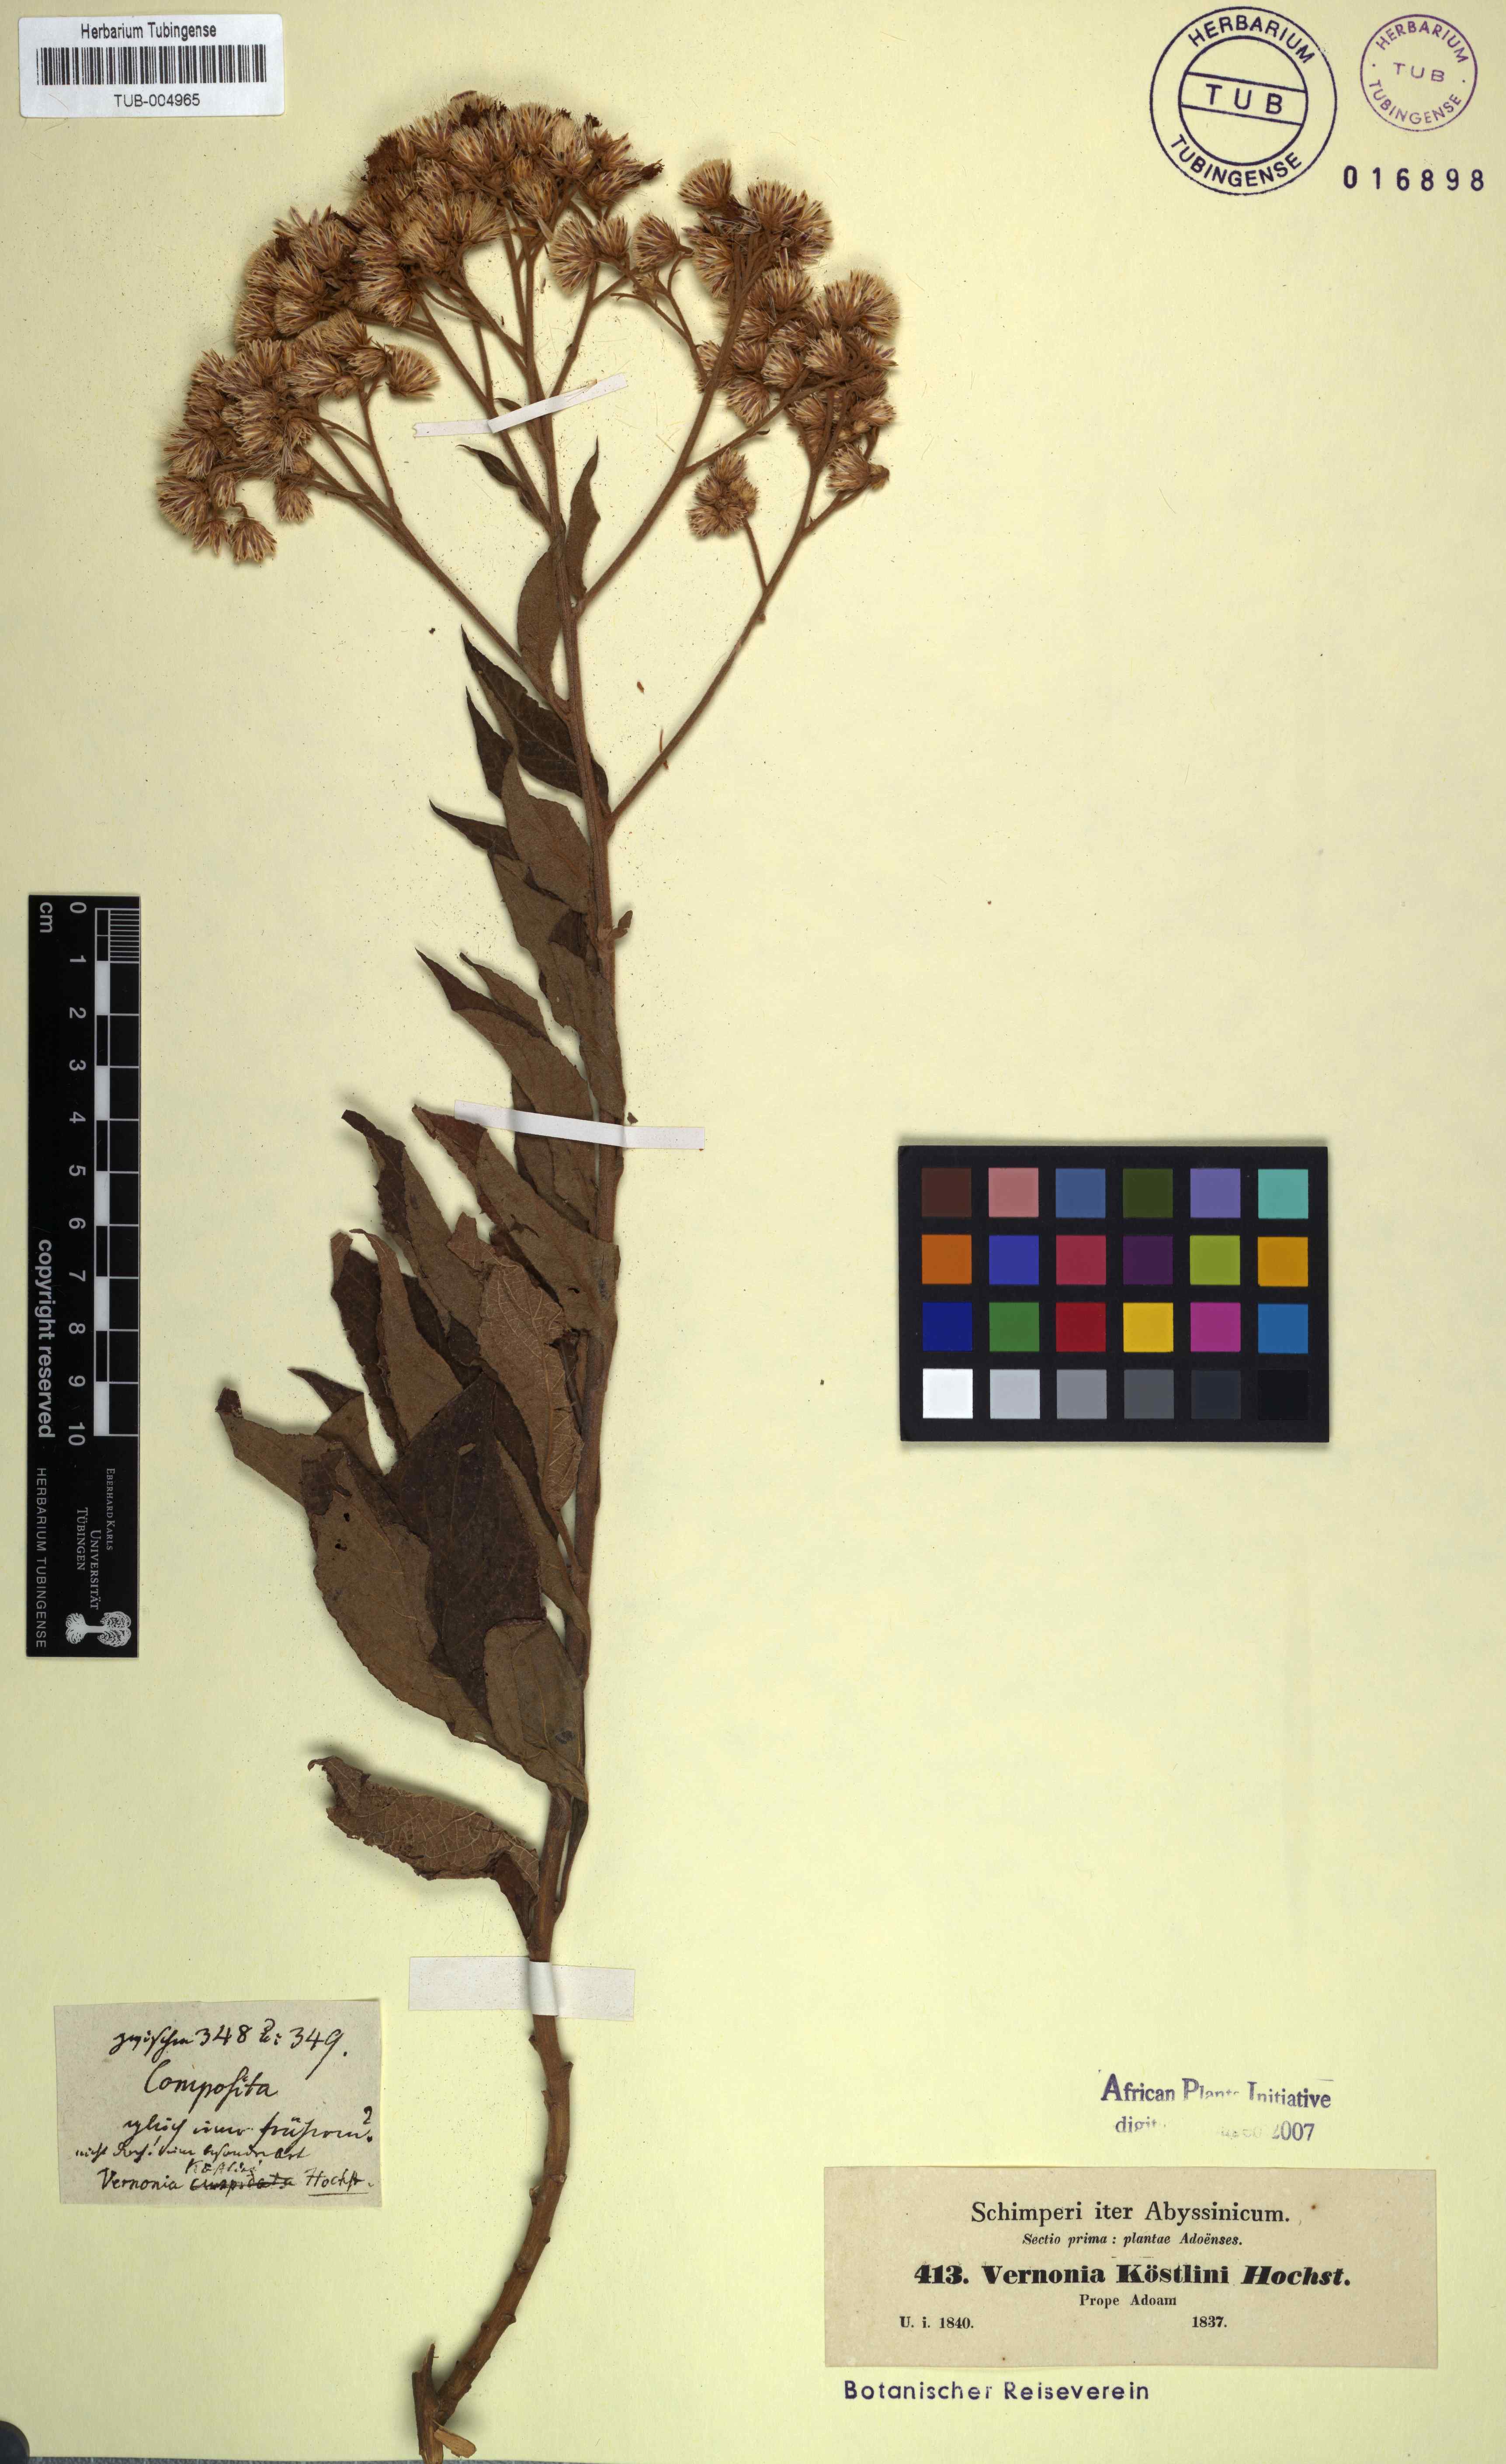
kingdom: Plantae
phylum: Tracheophyta
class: Magnoliopsida
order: Asterales
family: Asteraceae
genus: Vernonia
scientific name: Vernonia hochstetteri
